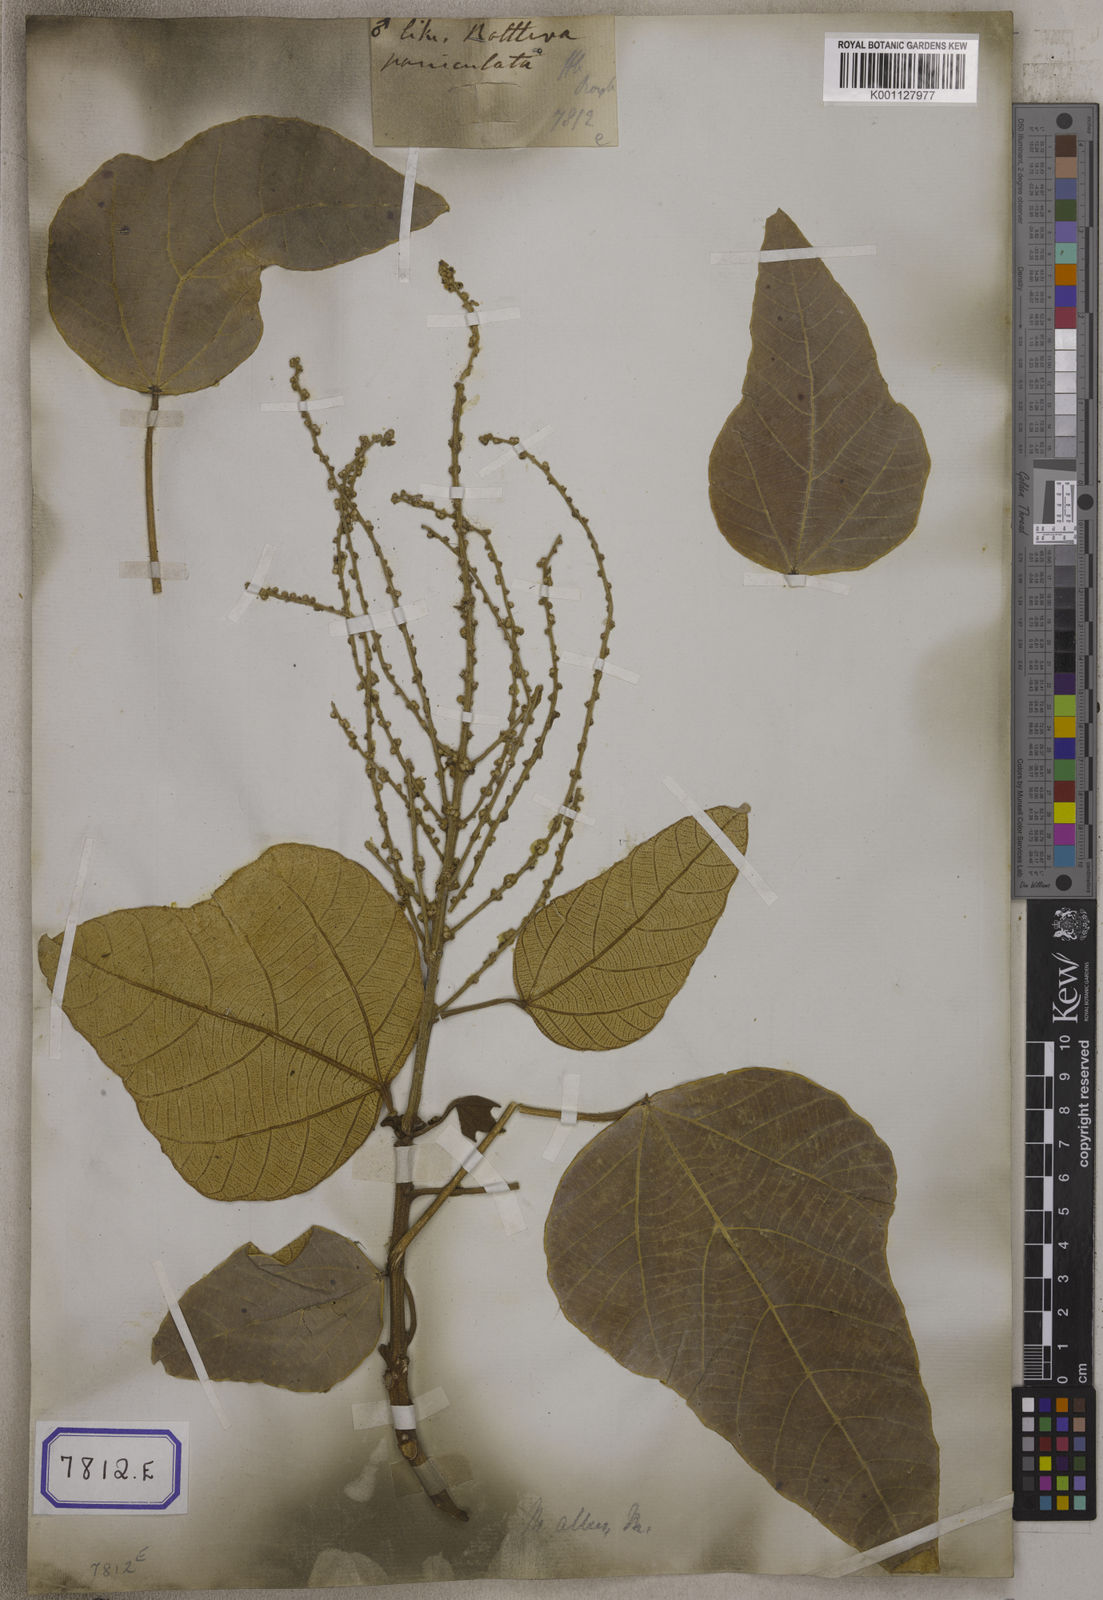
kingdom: Plantae
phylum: Tracheophyta
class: Magnoliopsida
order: Malpighiales
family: Euphorbiaceae
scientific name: Euphorbiaceae
